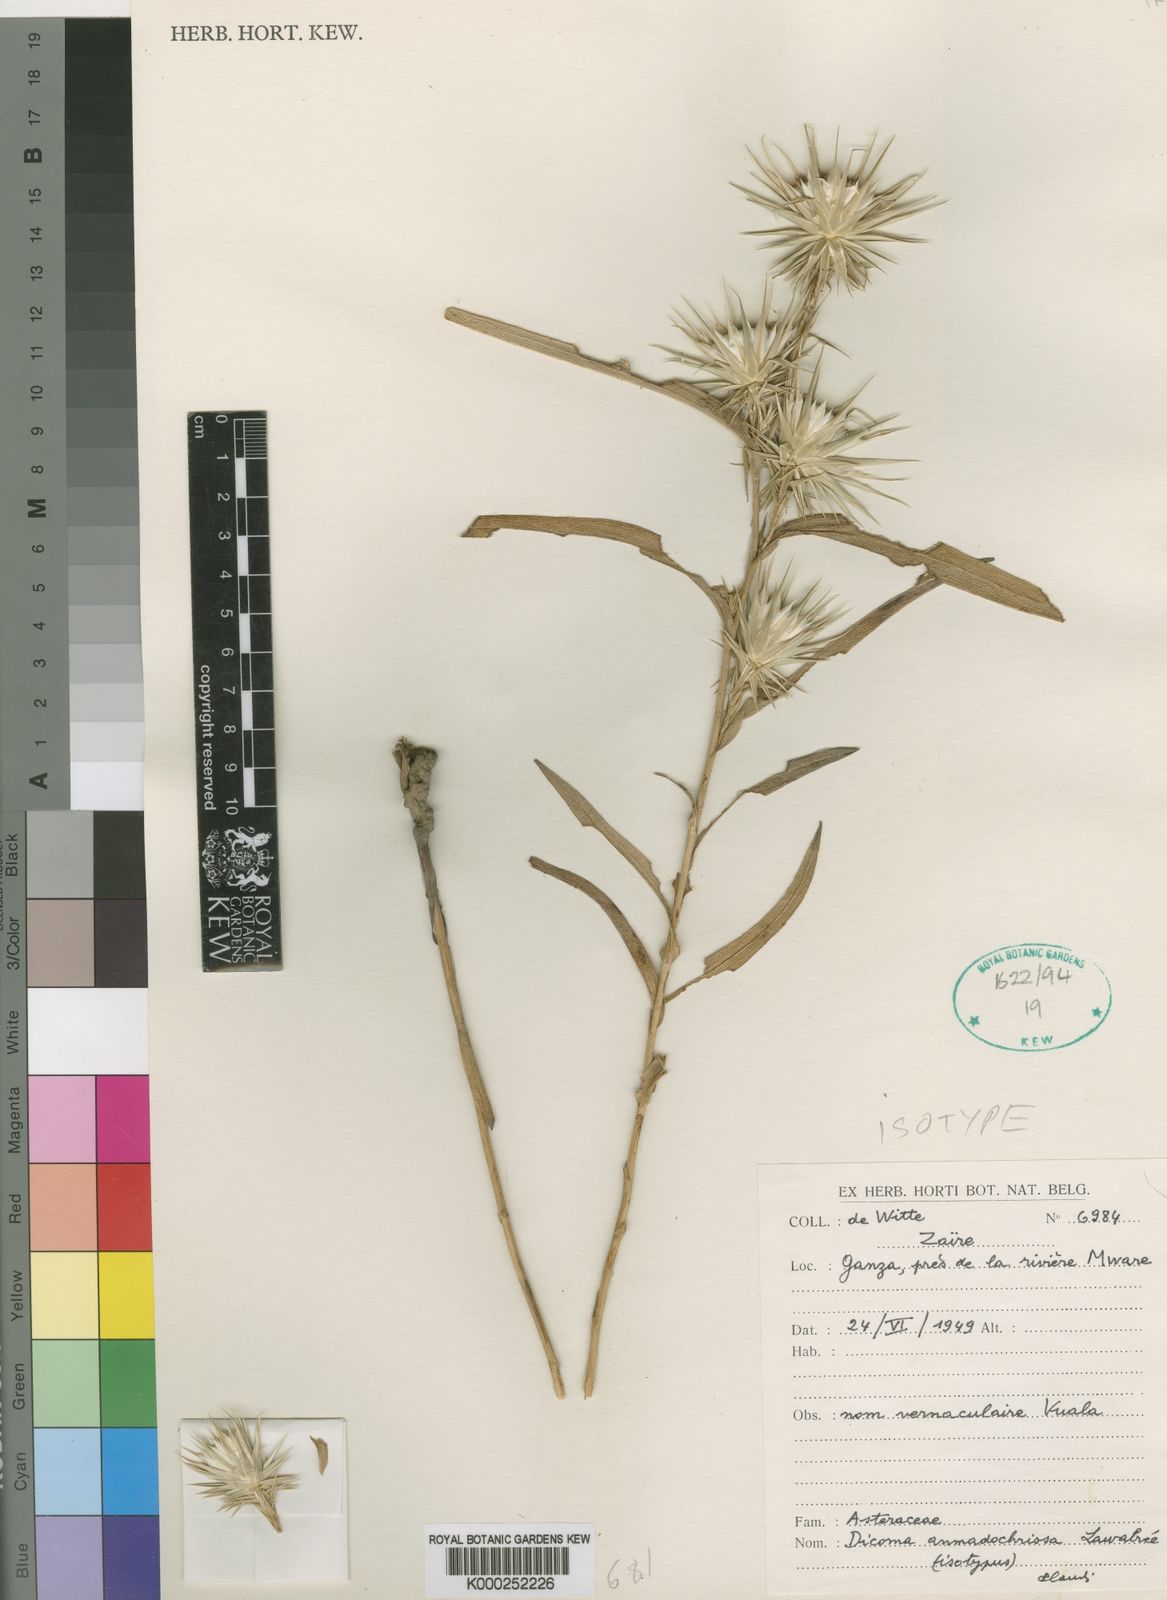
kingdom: Plantae
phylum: Tracheophyta
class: Magnoliopsida
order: Asterales
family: Asteraceae
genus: Macledium
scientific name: Macledium anmadochrissum
